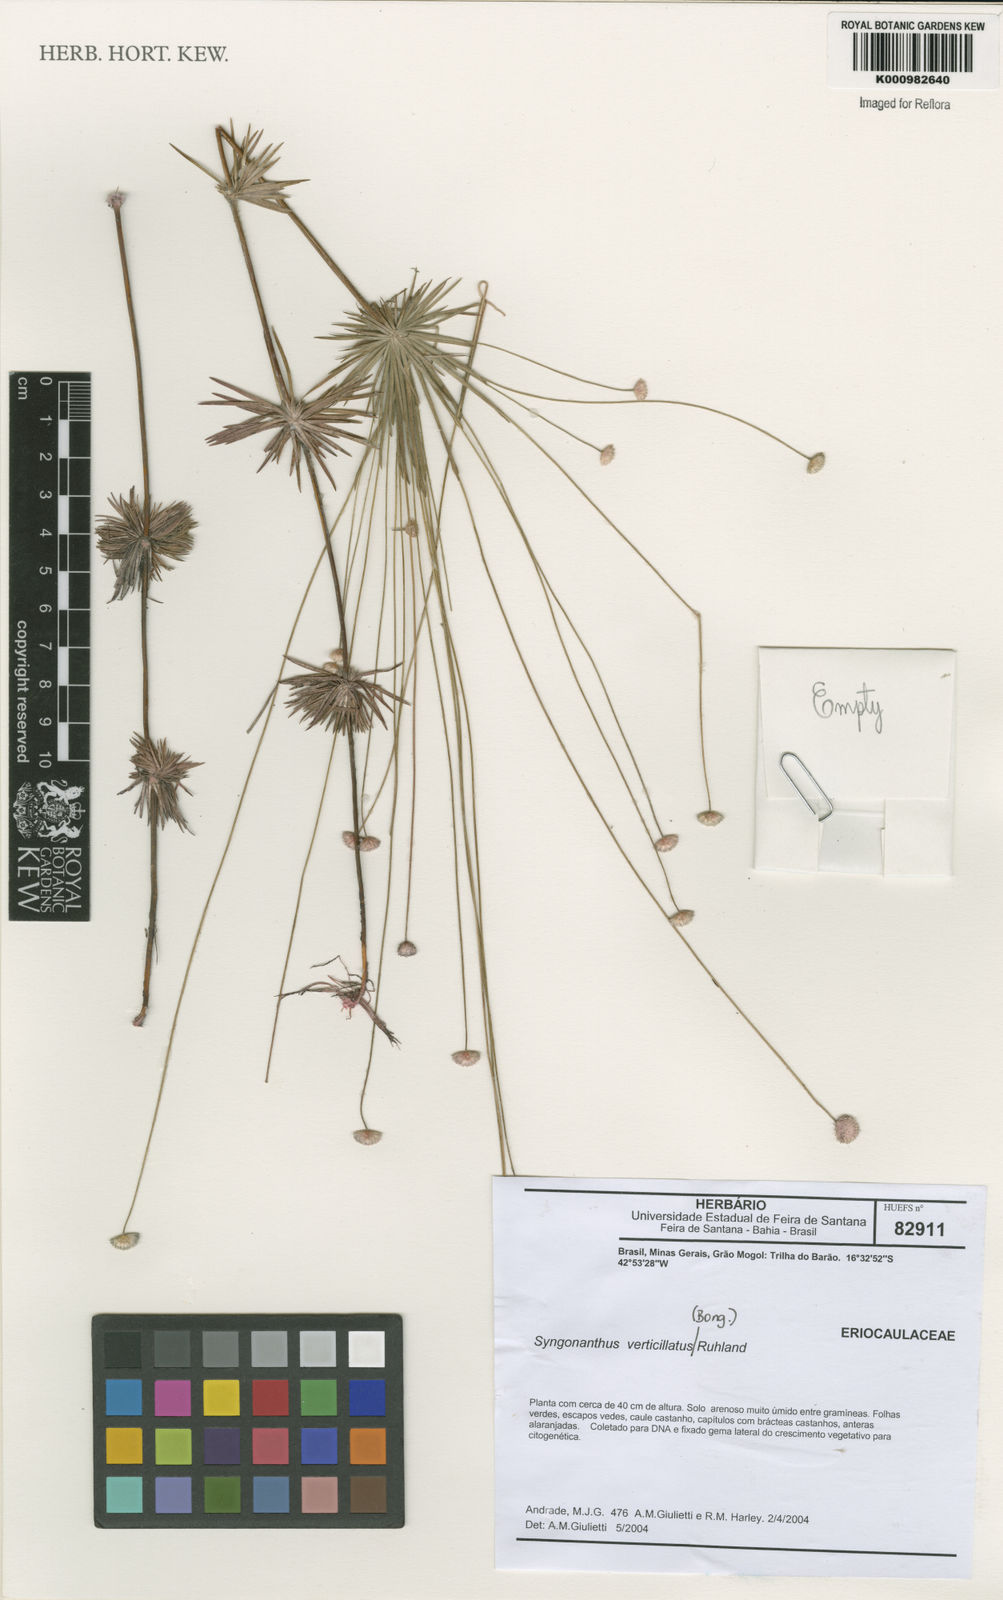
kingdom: Plantae
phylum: Tracheophyta
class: Liliopsida
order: Poales
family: Eriocaulaceae
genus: Syngonanthus
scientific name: Syngonanthus verticillatus
